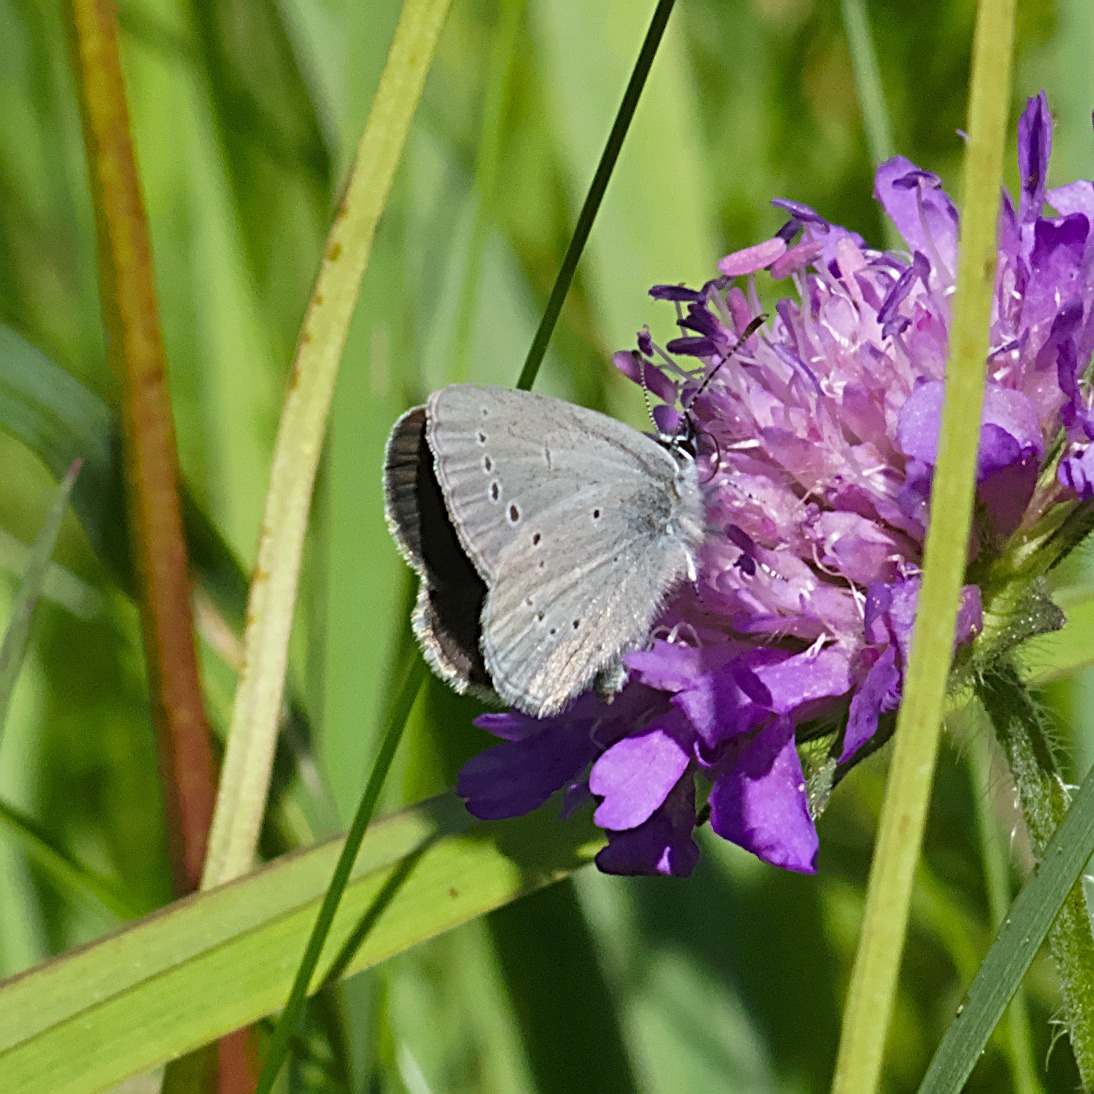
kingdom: Animalia
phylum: Arthropoda
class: Insecta
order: Lepidoptera
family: Lycaenidae
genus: Cupido
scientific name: Cupido minimus
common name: Dværgblåfugl
